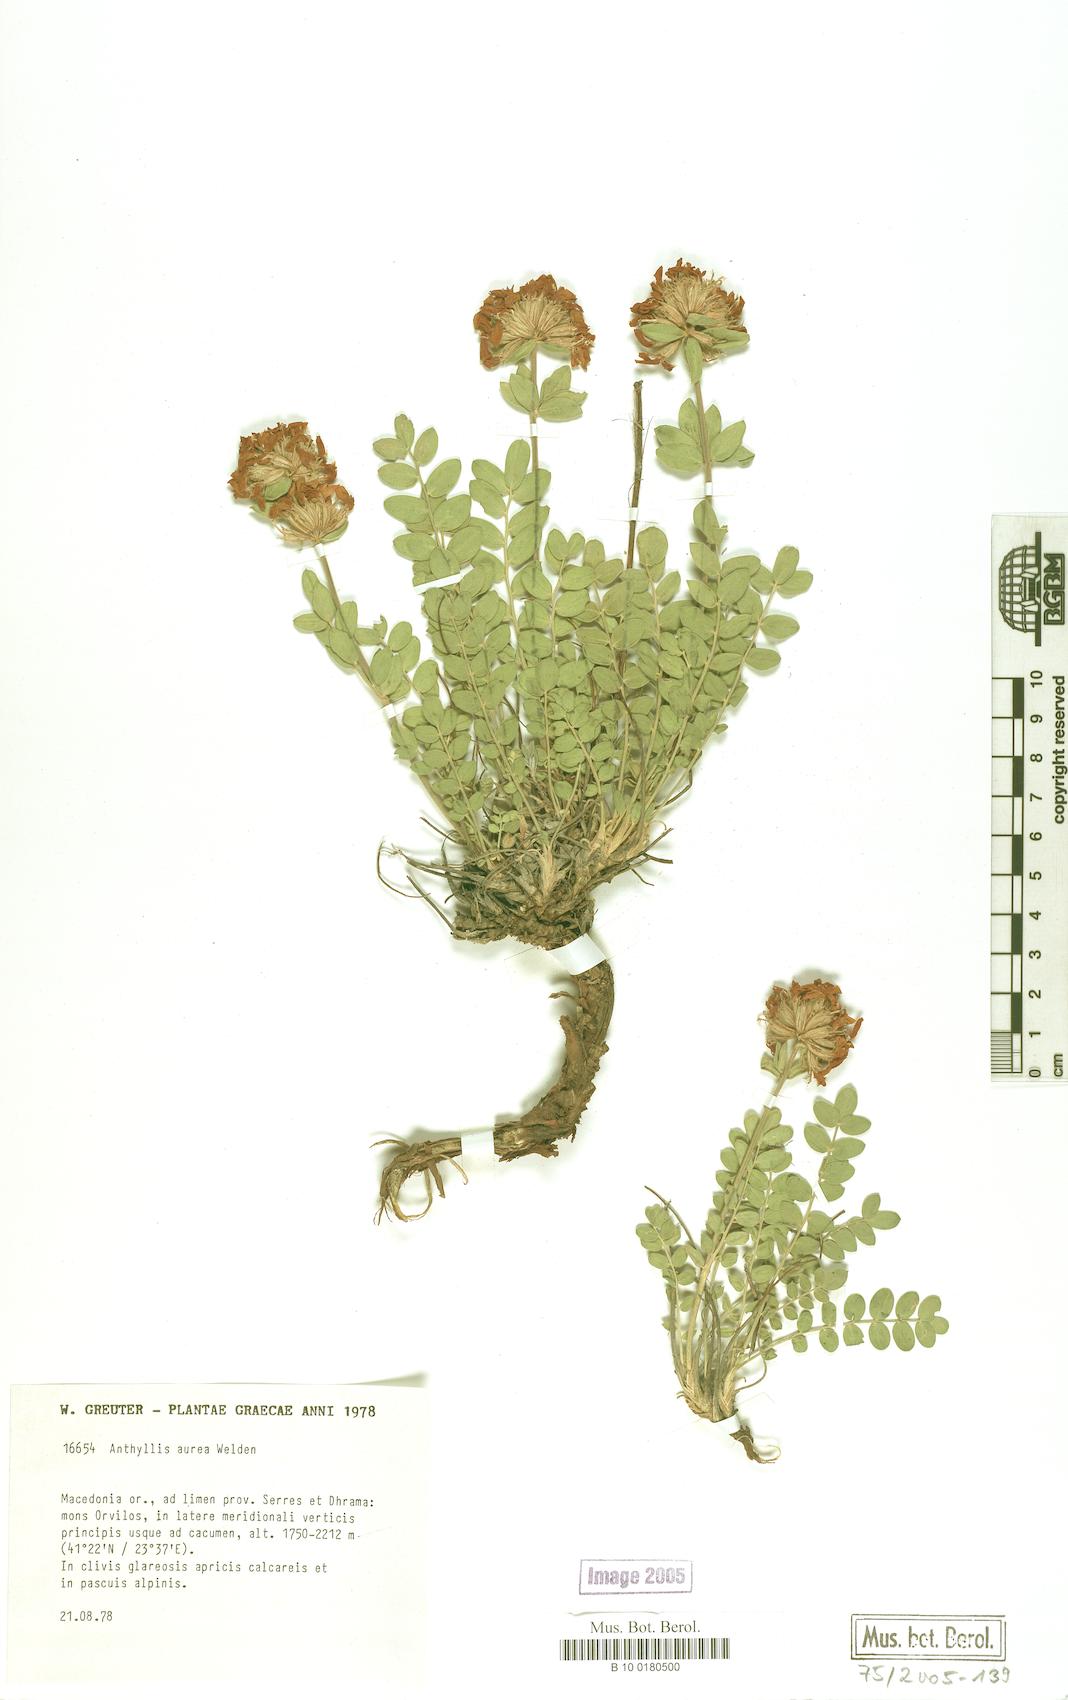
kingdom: Plantae
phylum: Tracheophyta
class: Magnoliopsida
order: Fabales
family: Fabaceae
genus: Anthyllis
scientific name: Anthyllis aurea
